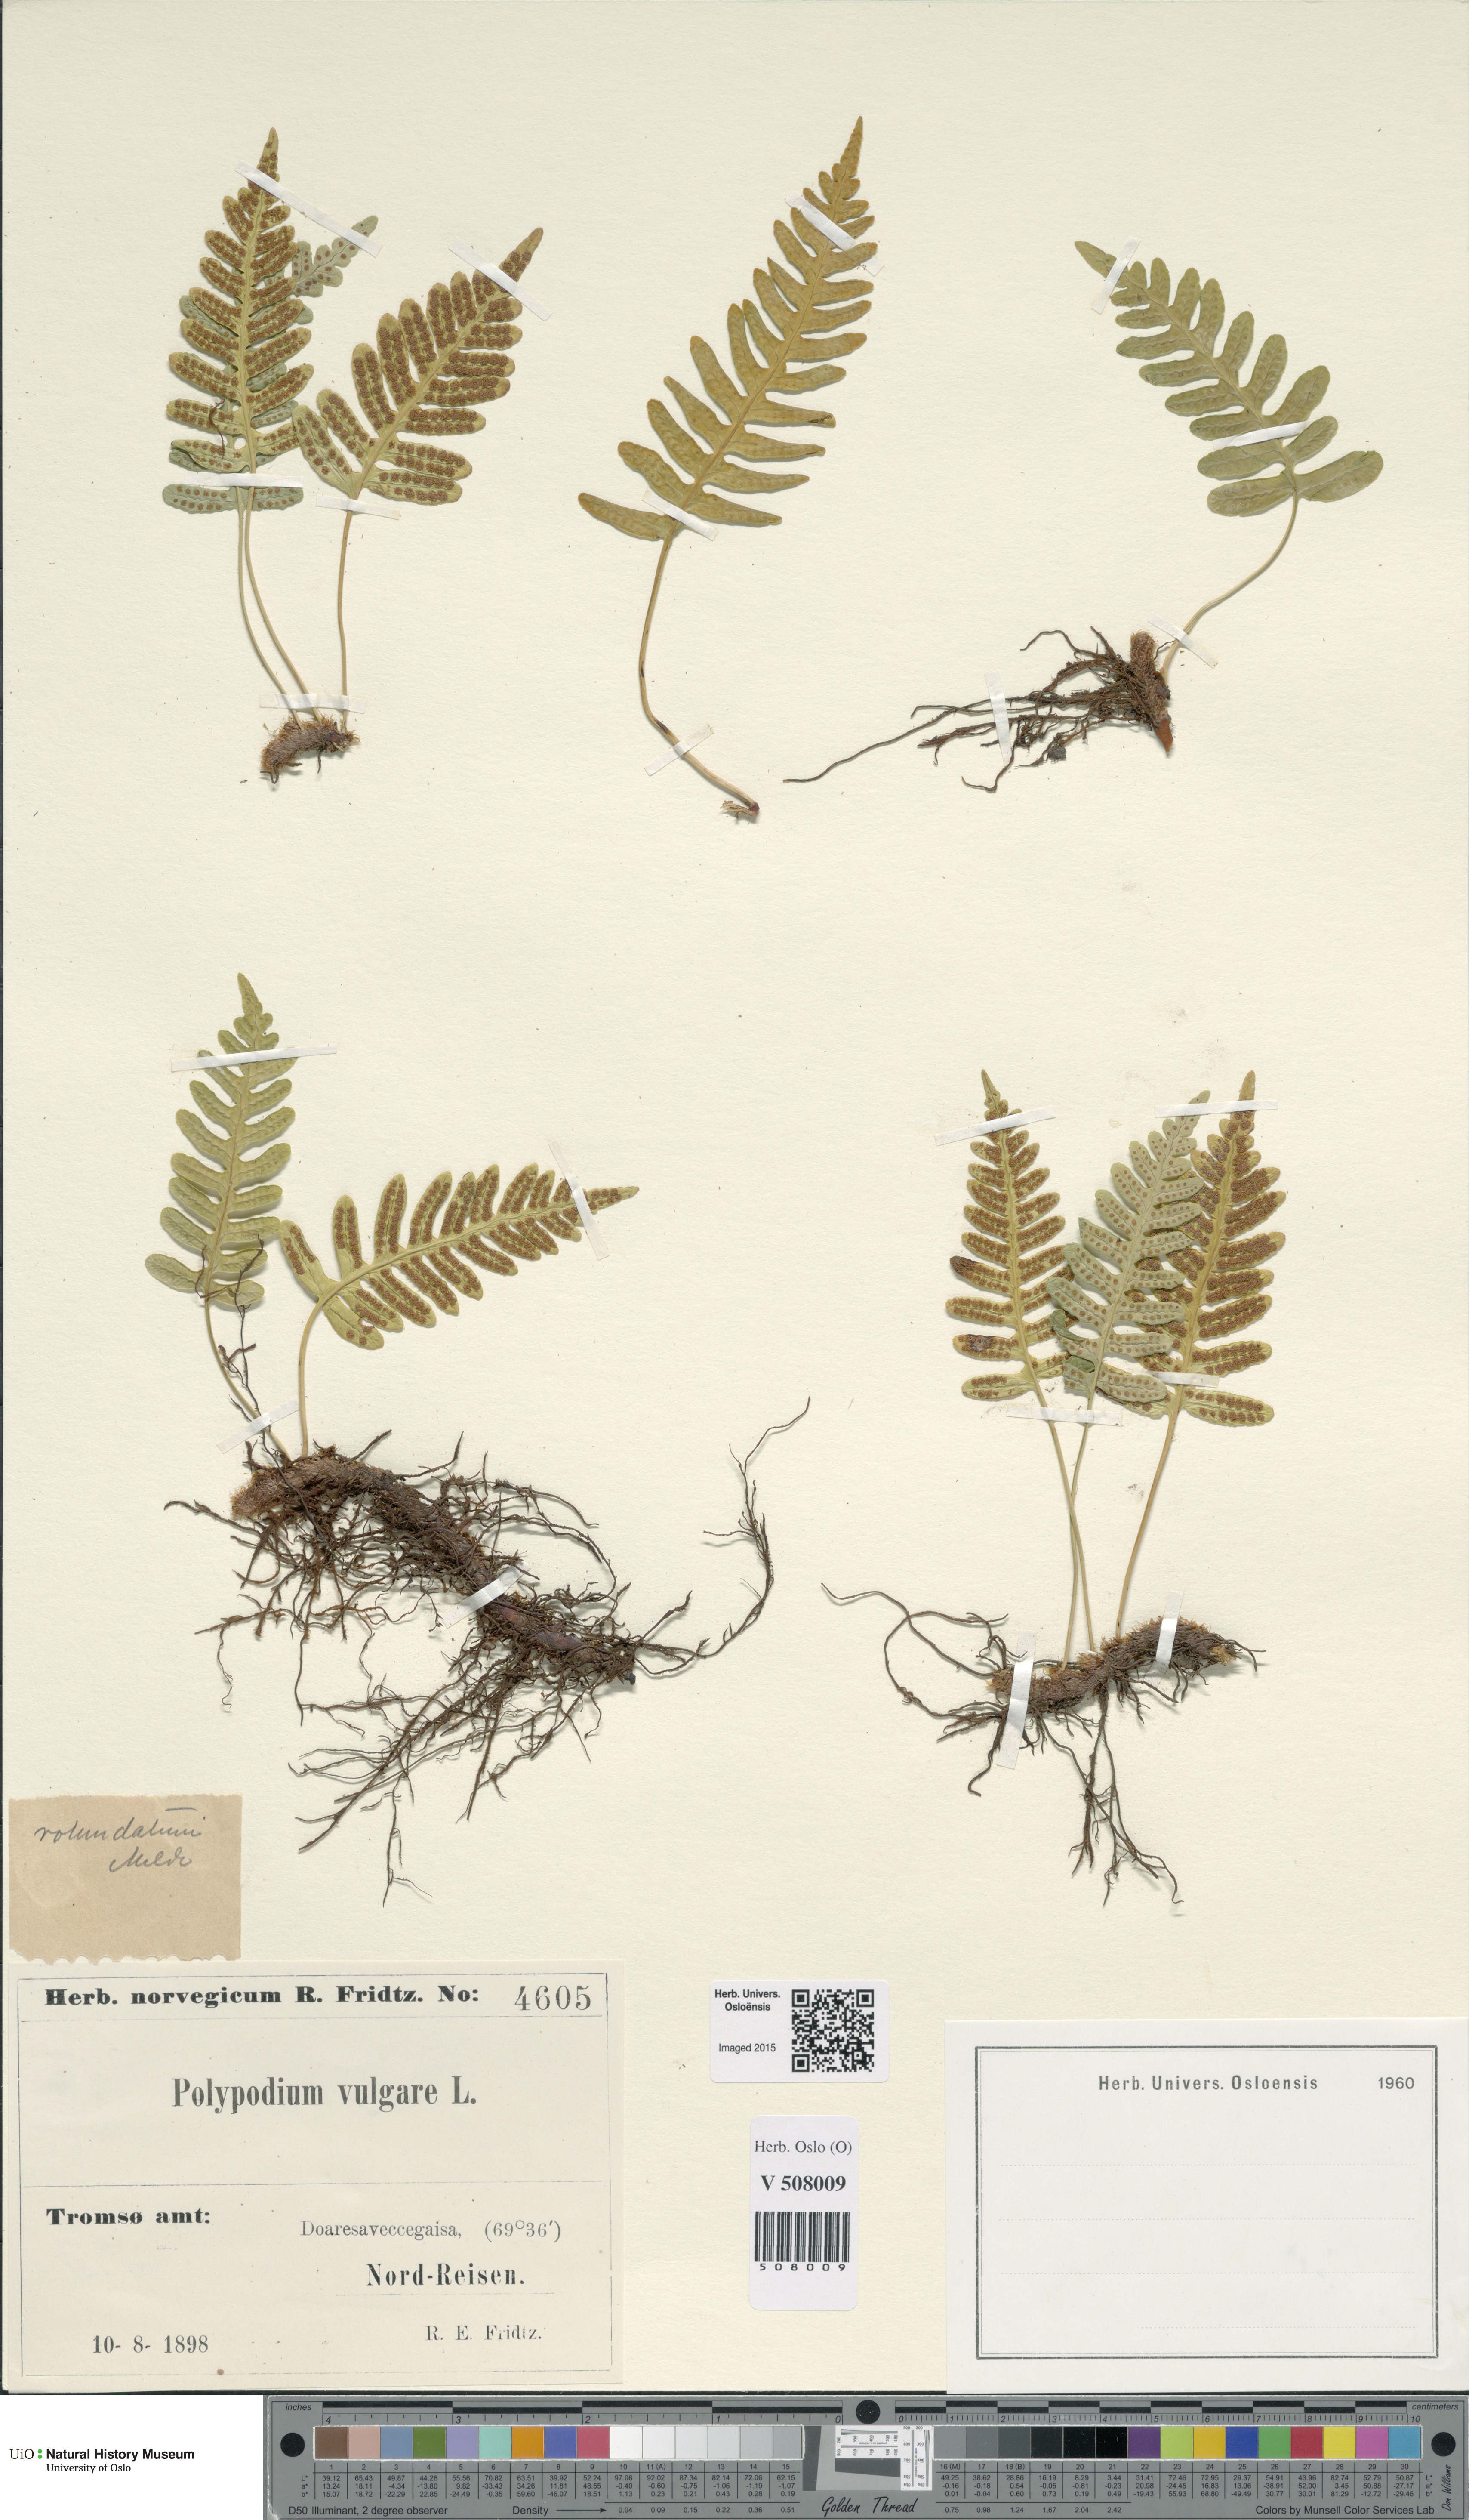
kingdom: Plantae
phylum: Tracheophyta
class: Polypodiopsida
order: Polypodiales
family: Polypodiaceae
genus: Polypodium
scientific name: Polypodium vulgare
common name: Common polypody
